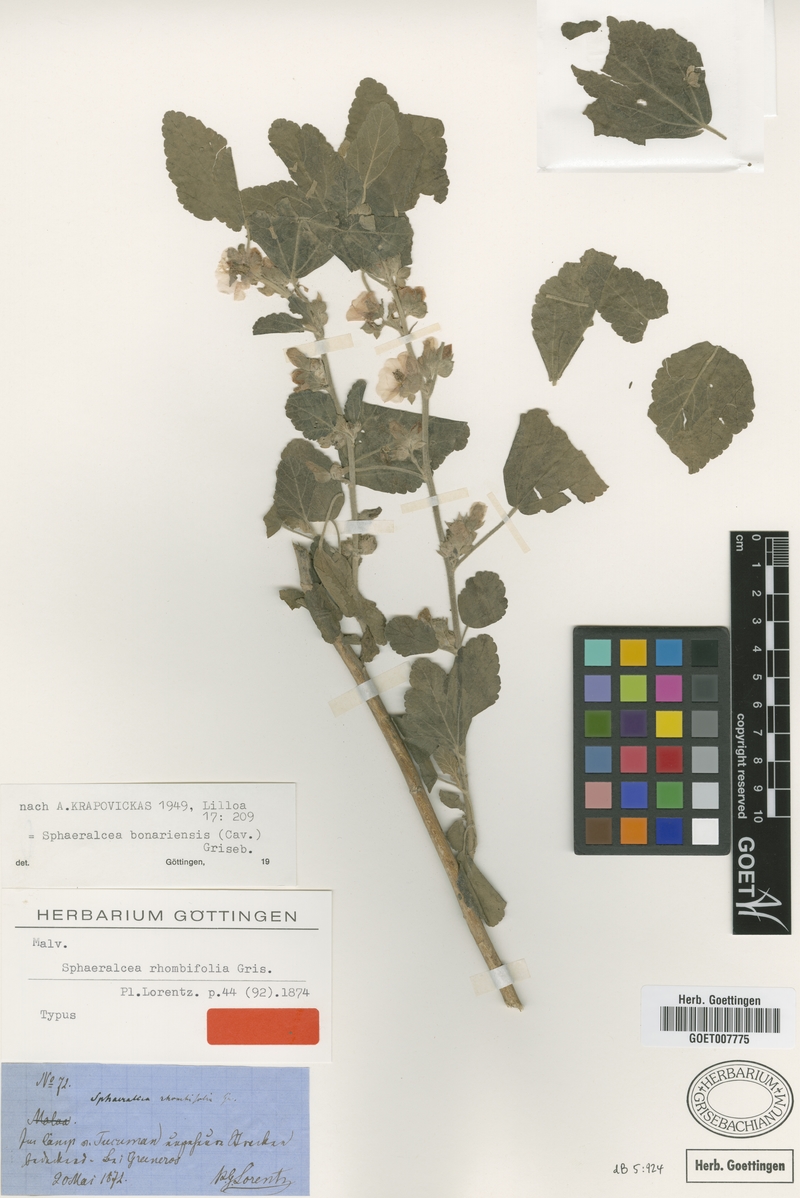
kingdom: Plantae
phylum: Tracheophyta
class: Magnoliopsida
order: Malvales
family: Malvaceae
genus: Sphaeralcea
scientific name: Sphaeralcea bonariensis
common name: Latin globemallow
